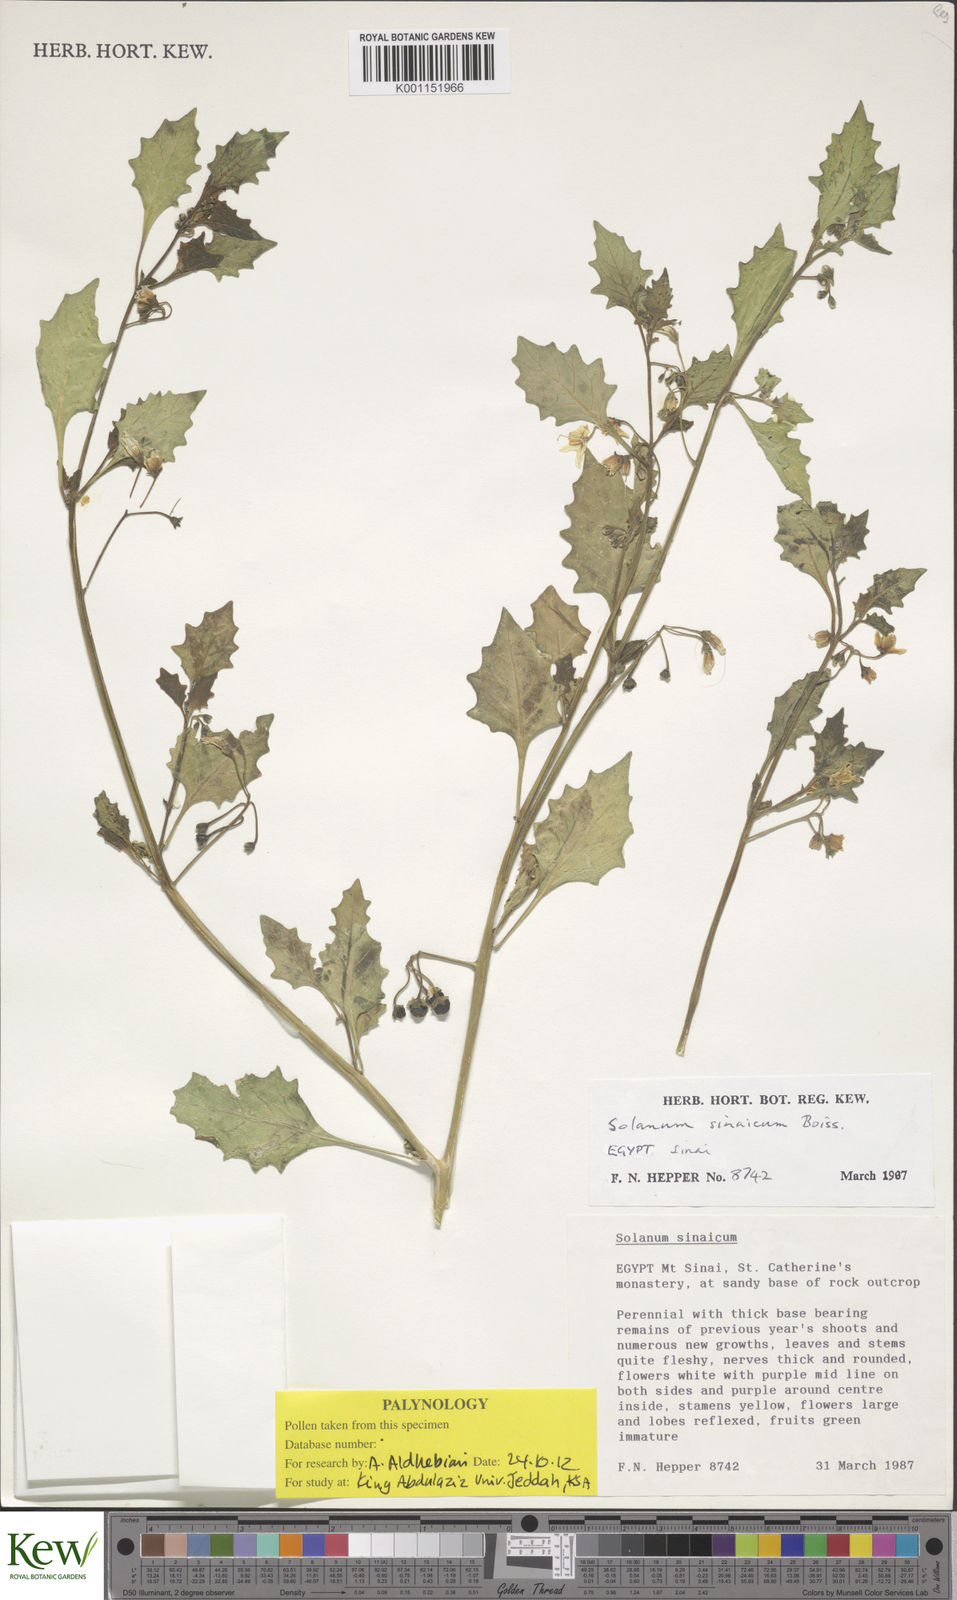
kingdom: Plantae
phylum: Tracheophyta
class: Magnoliopsida
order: Solanales
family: Solanaceae
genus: Solanum
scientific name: Solanum villosum
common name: Red nightshade
